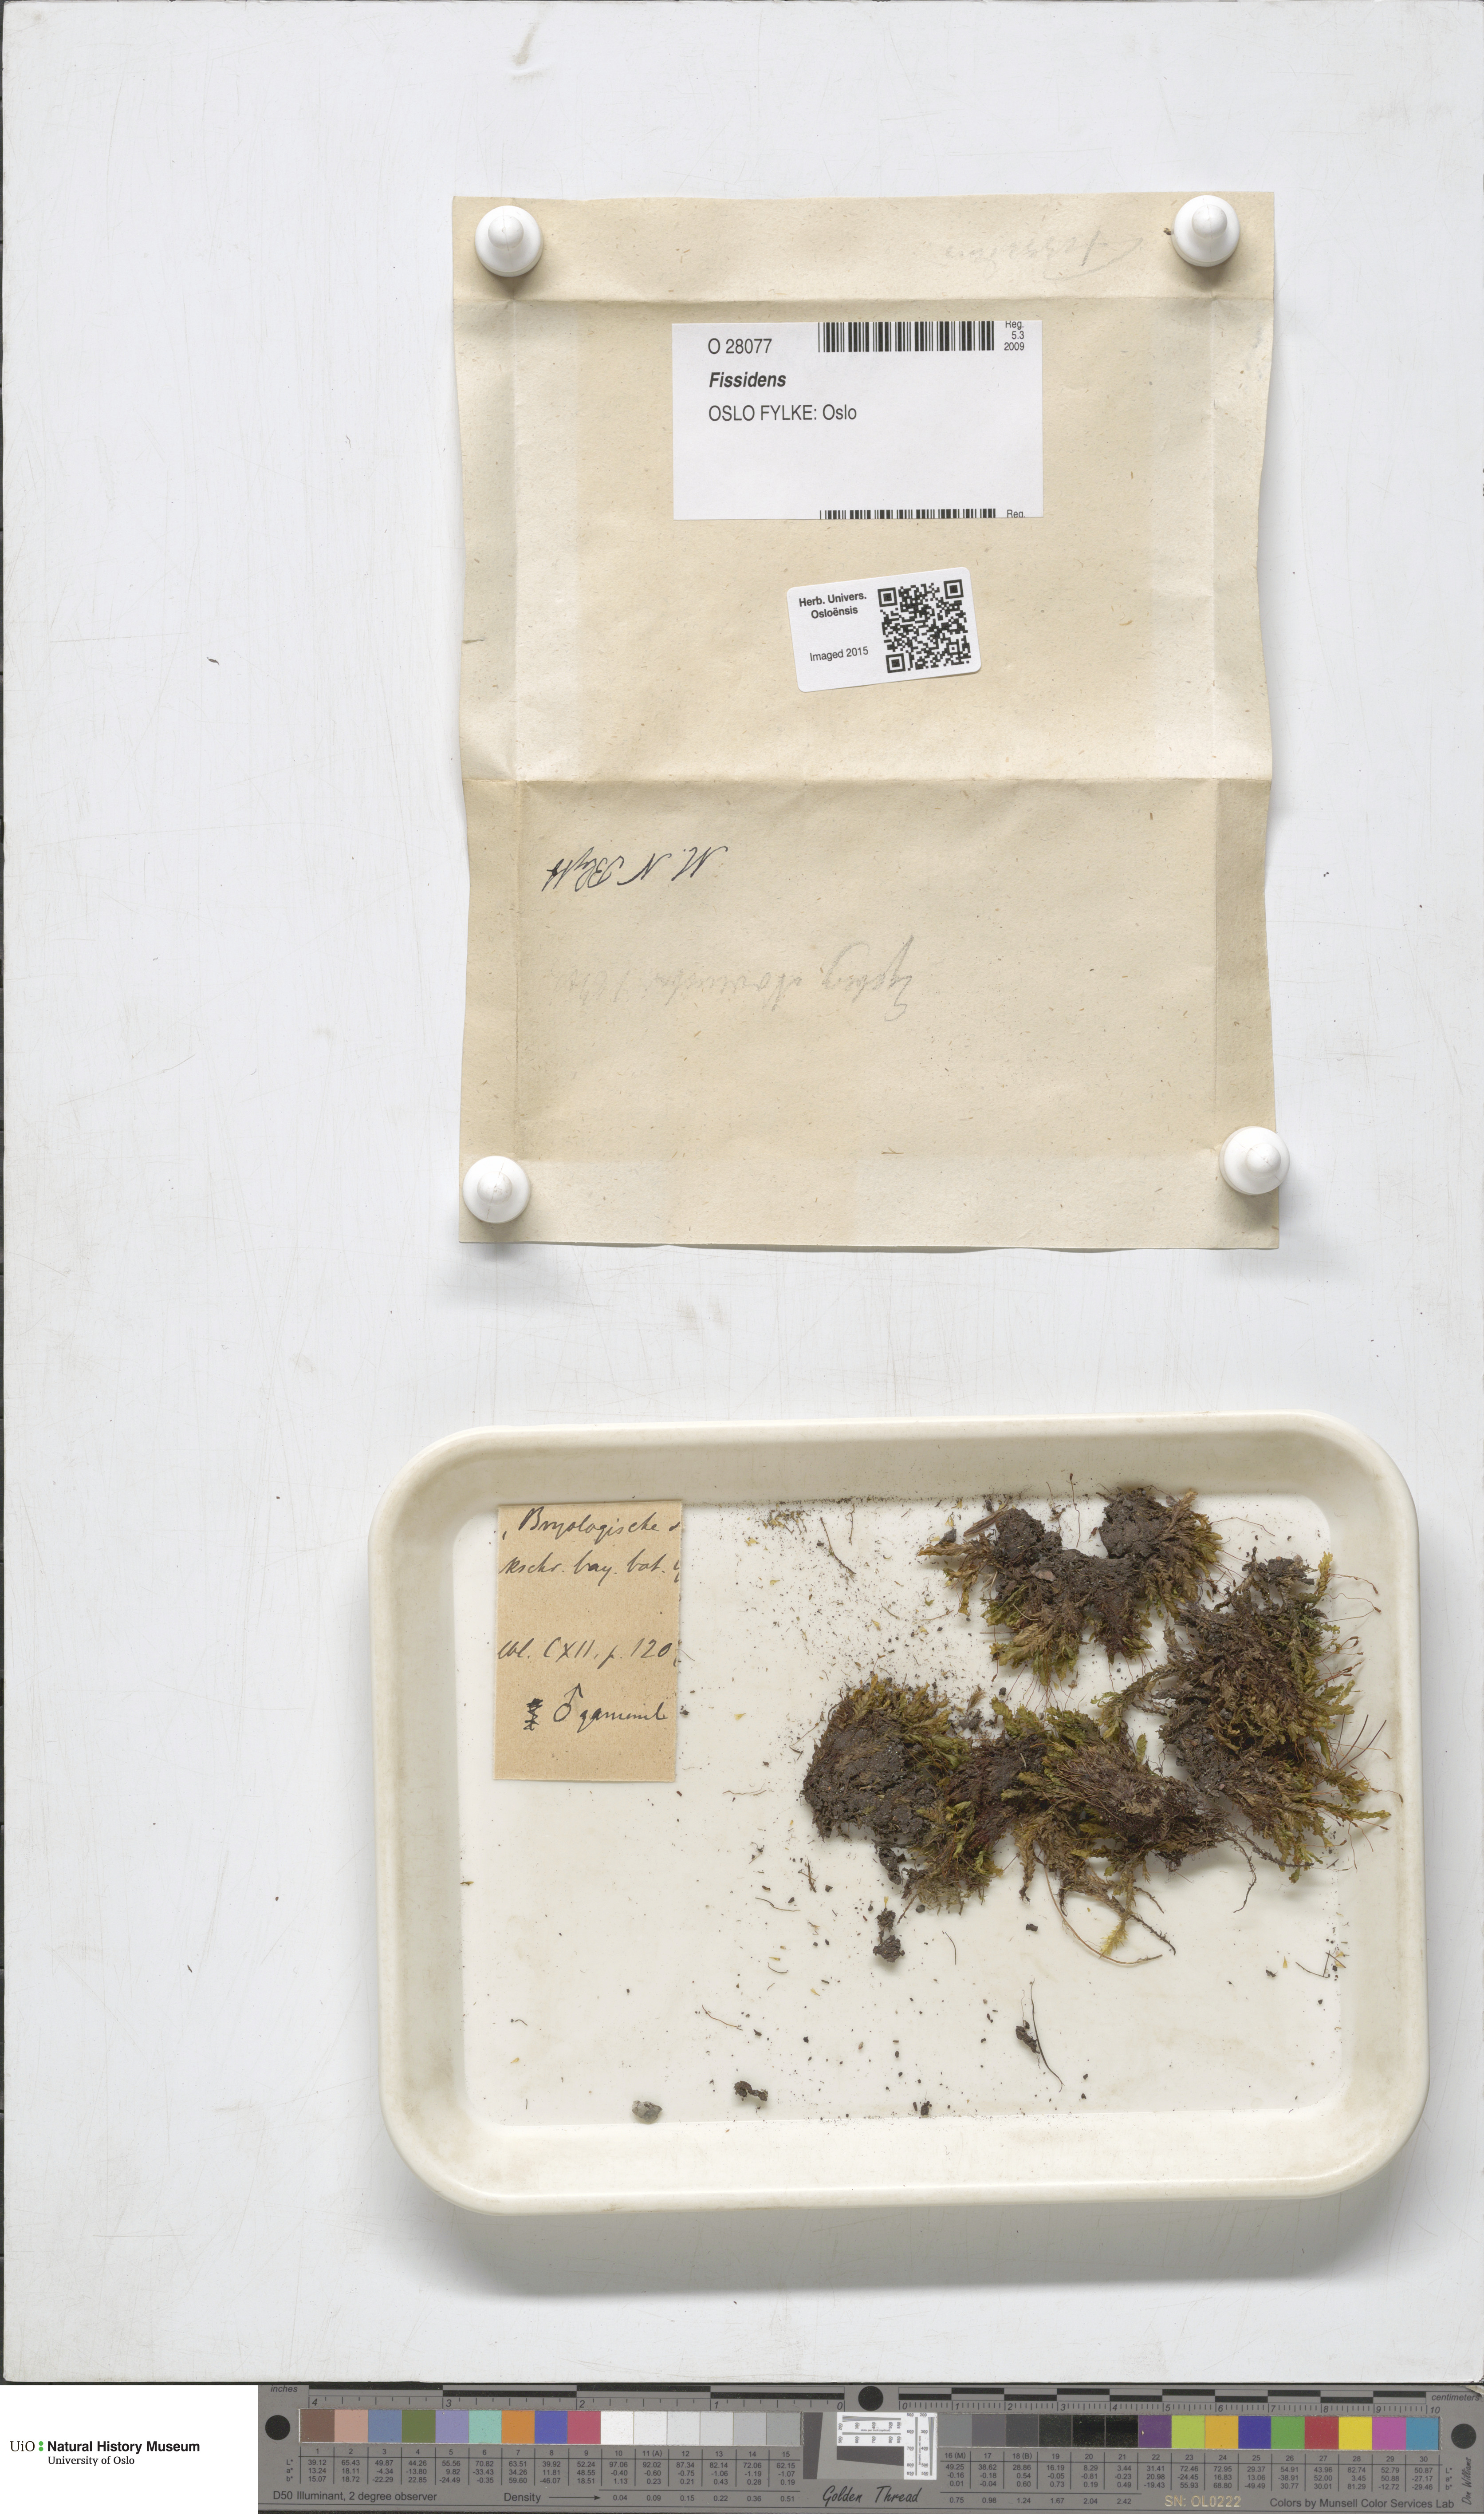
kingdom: Plantae
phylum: Bryophyta
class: Bryopsida
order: Dicranales
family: Fissidentaceae
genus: Fissidens
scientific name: Fissidens
